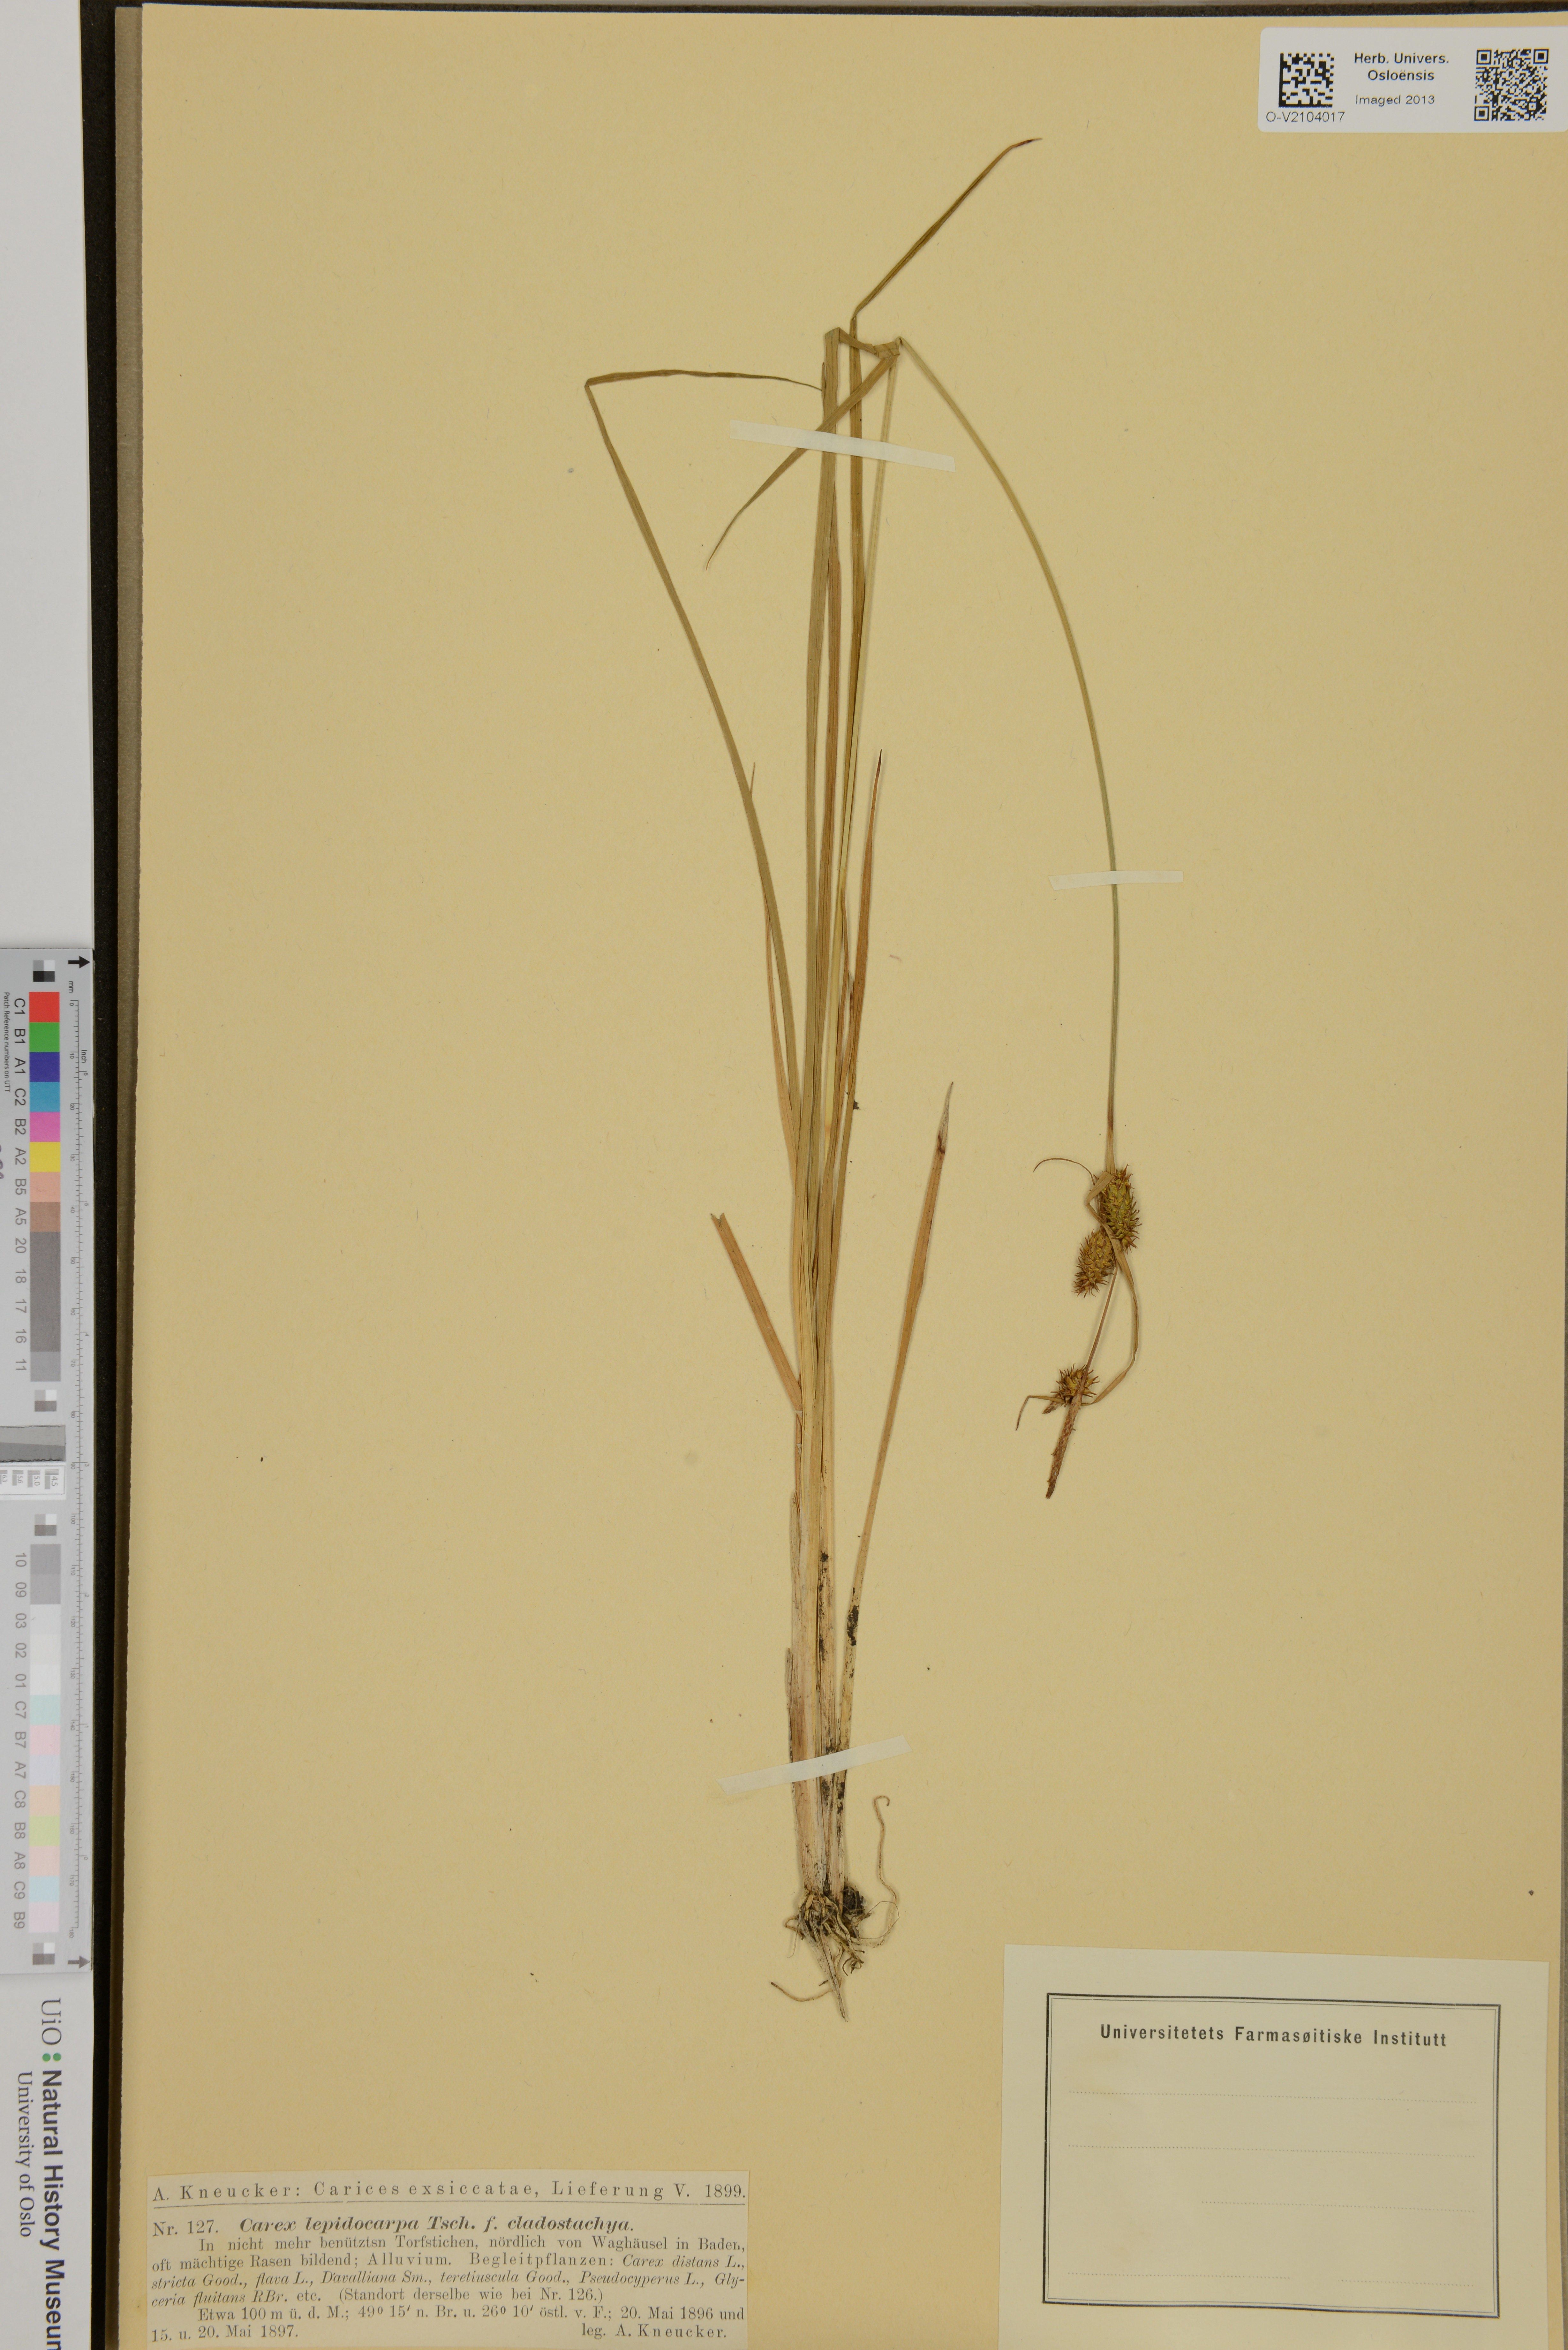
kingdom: Plantae
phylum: Tracheophyta
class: Liliopsida
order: Poales
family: Cyperaceae
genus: Carex
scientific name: Carex lepidocarpa
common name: Long-stalked yellow-sedge
